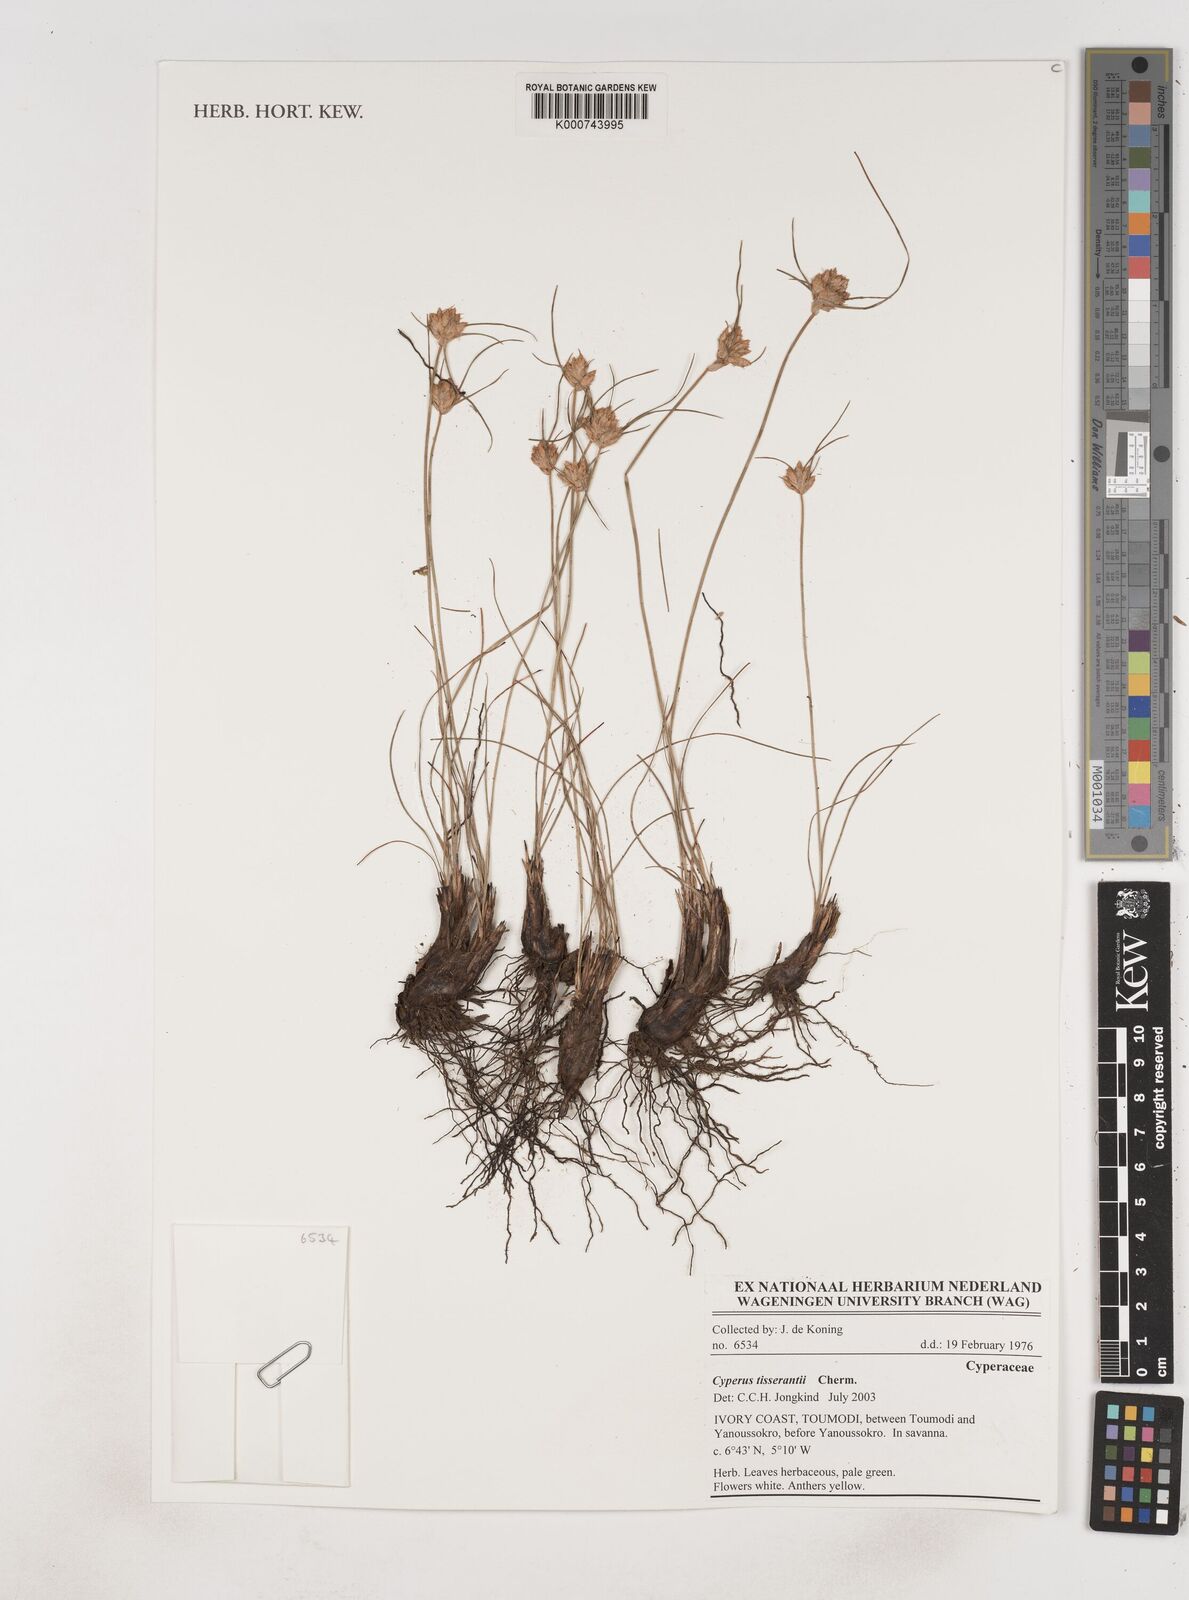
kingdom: Plantae
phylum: Tracheophyta
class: Liliopsida
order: Poales
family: Cyperaceae
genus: Cyperus
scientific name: Cyperus niveus
